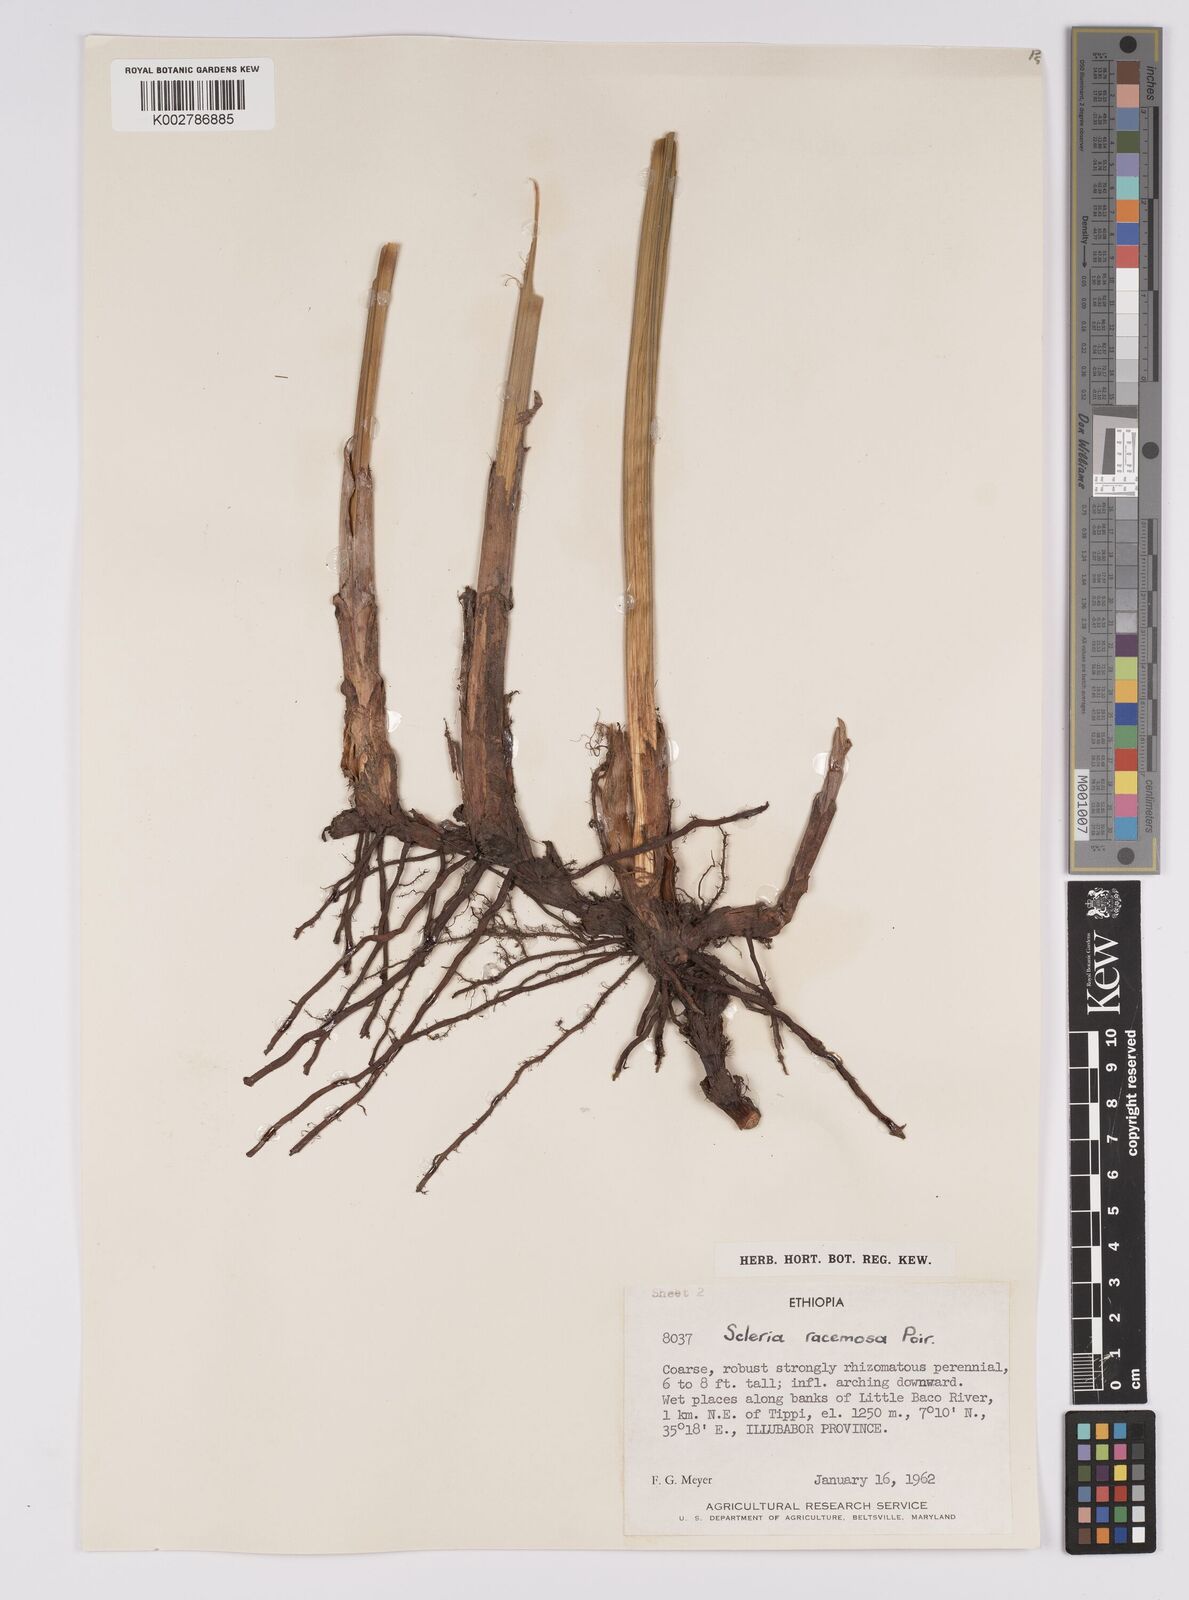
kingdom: Plantae
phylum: Tracheophyta
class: Liliopsida
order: Poales
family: Cyperaceae
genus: Scleria
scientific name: Scleria racemosa
